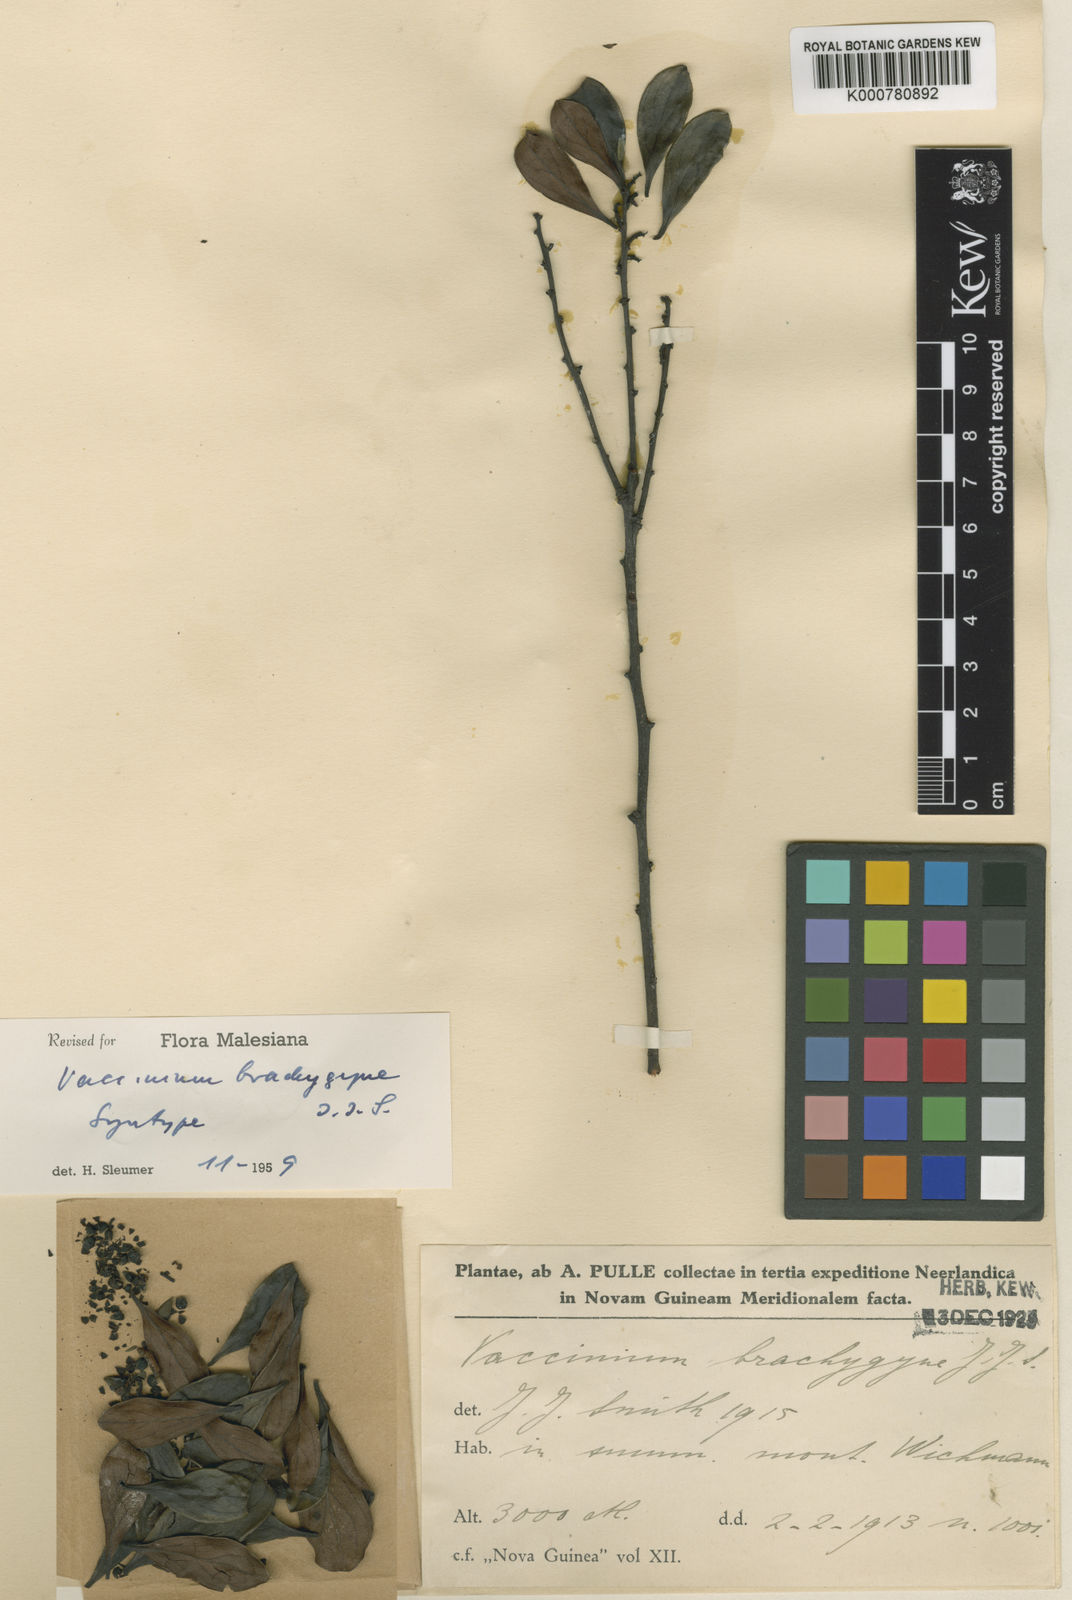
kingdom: Plantae
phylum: Tracheophyta
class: Magnoliopsida
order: Ericales
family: Ericaceae
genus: Vaccinium
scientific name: Vaccinium brachygyne
